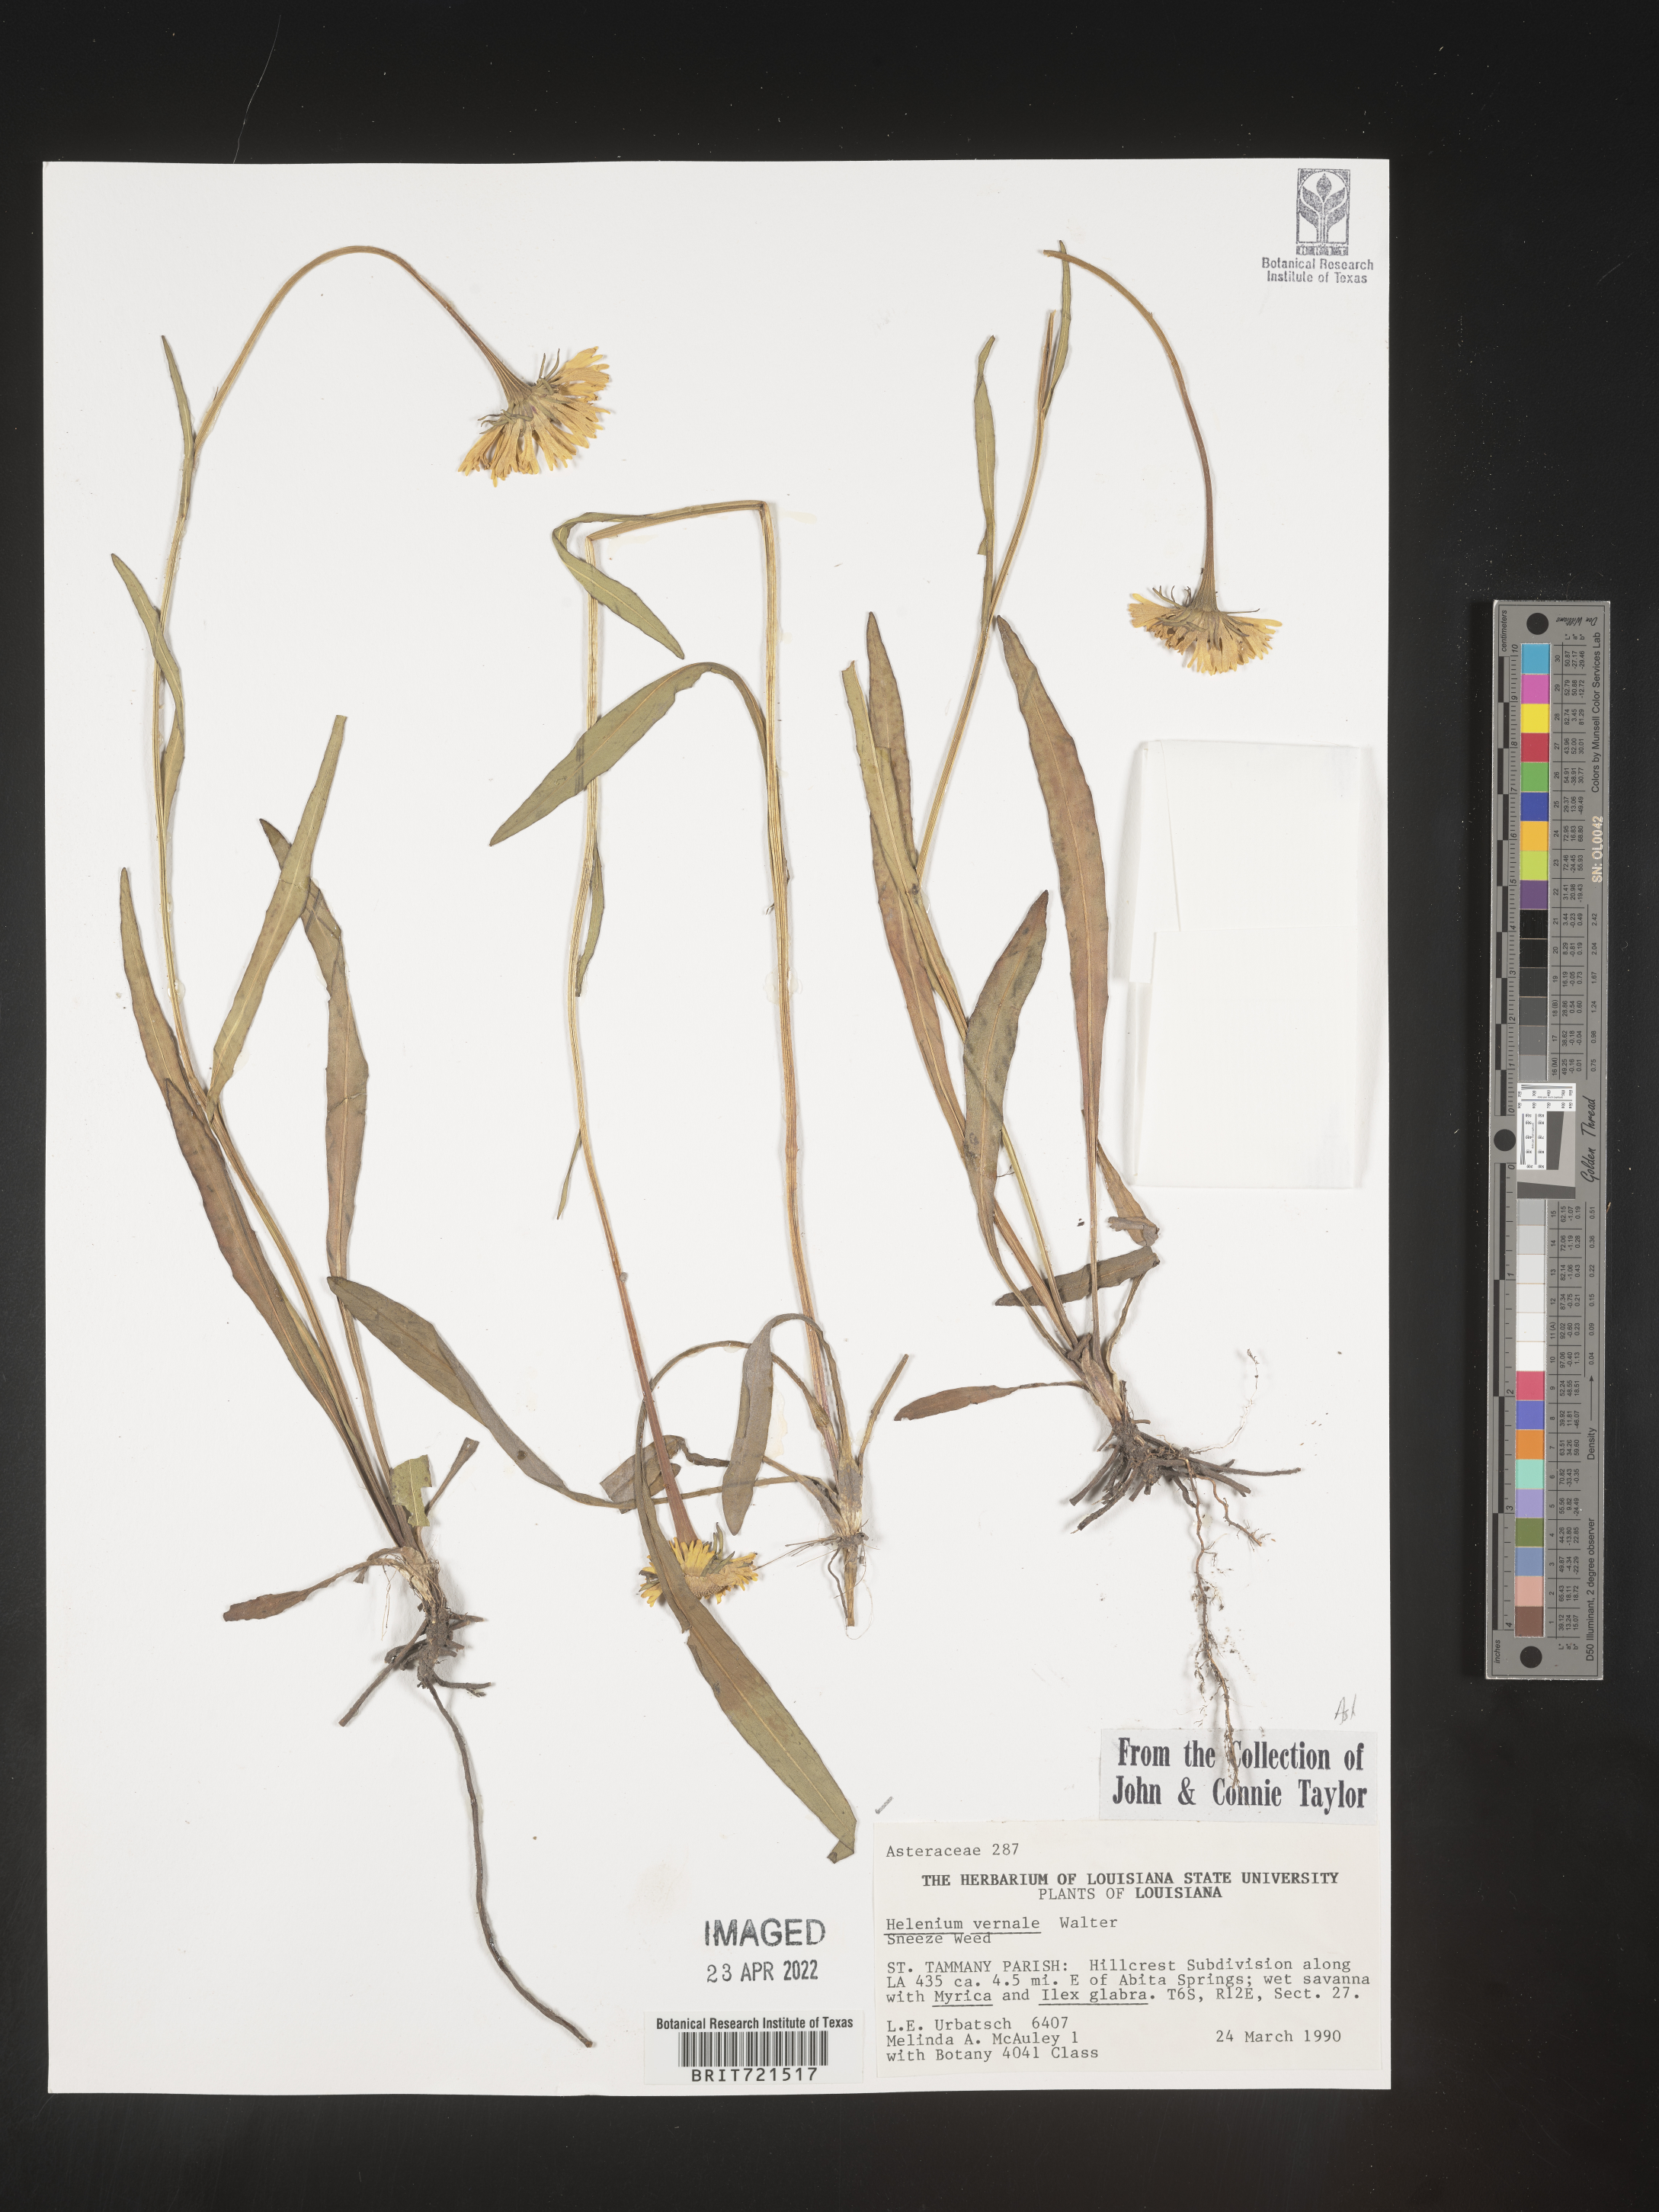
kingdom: Plantae
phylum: Tracheophyta
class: Magnoliopsida
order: Asterales
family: Asteraceae
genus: Helenium
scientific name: Helenium vernale
